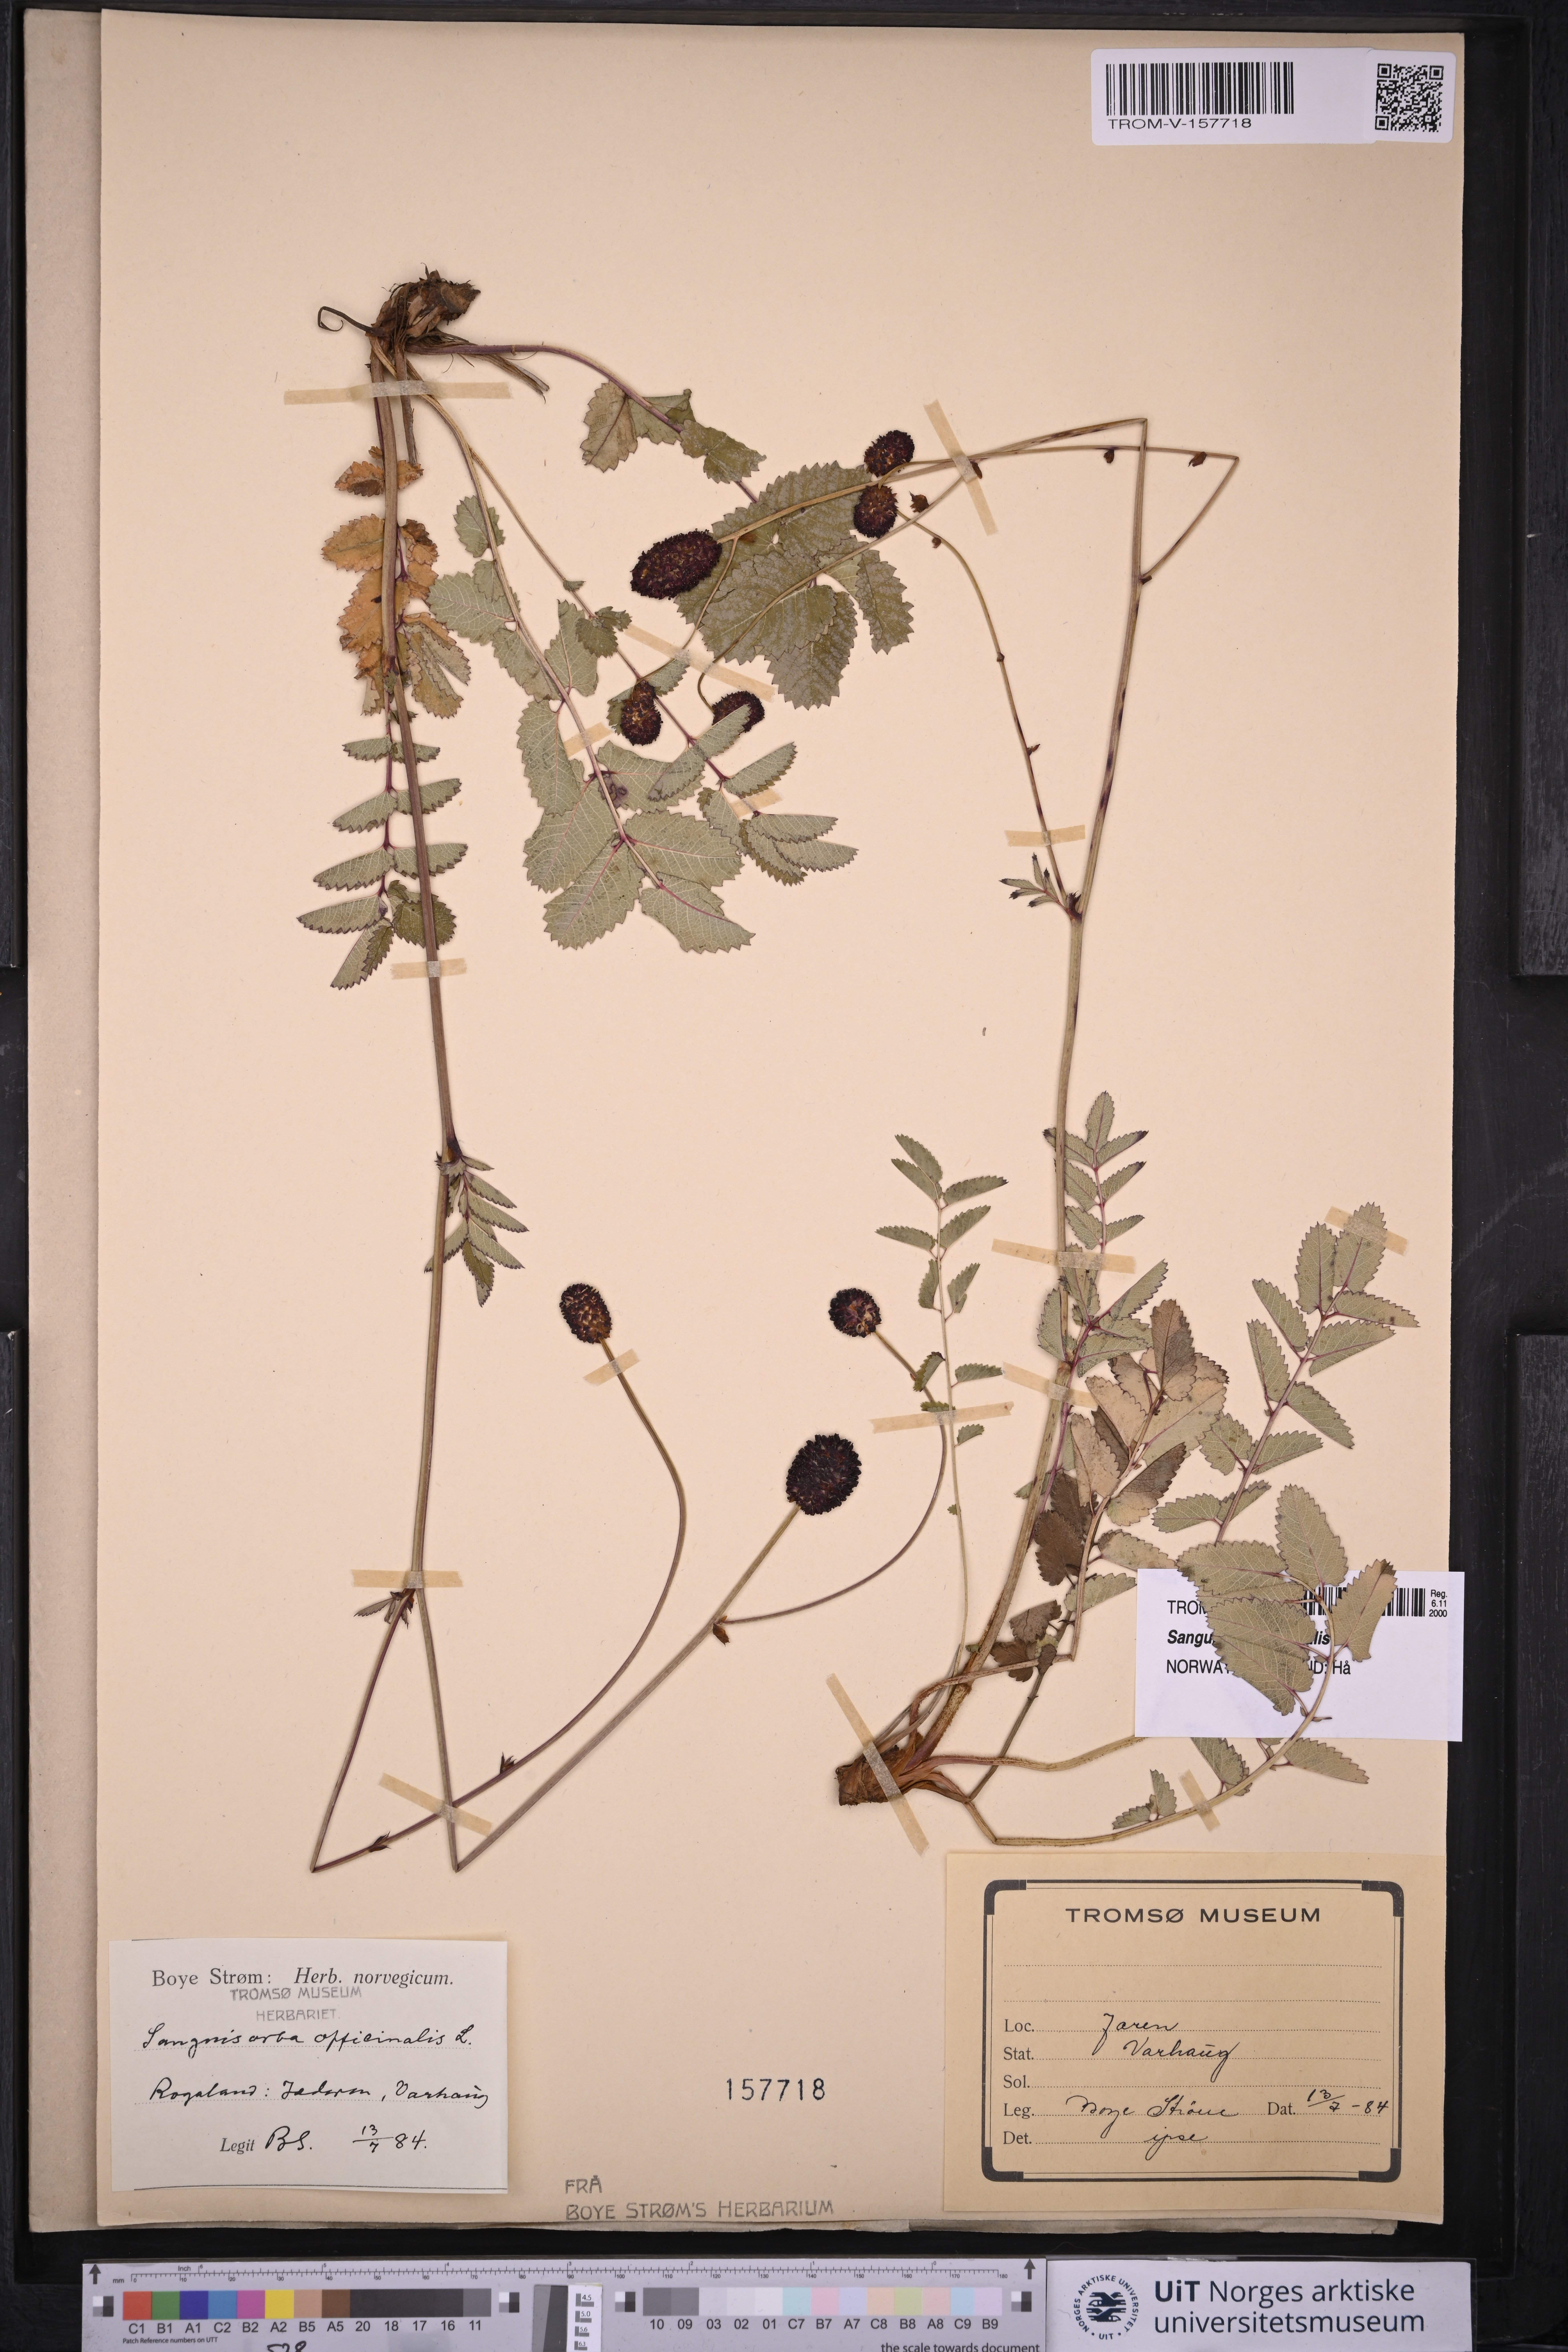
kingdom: Plantae
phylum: Tracheophyta
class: Magnoliopsida
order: Rosales
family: Rosaceae
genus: Sanguisorba
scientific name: Sanguisorba officinalis
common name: Great burnet
